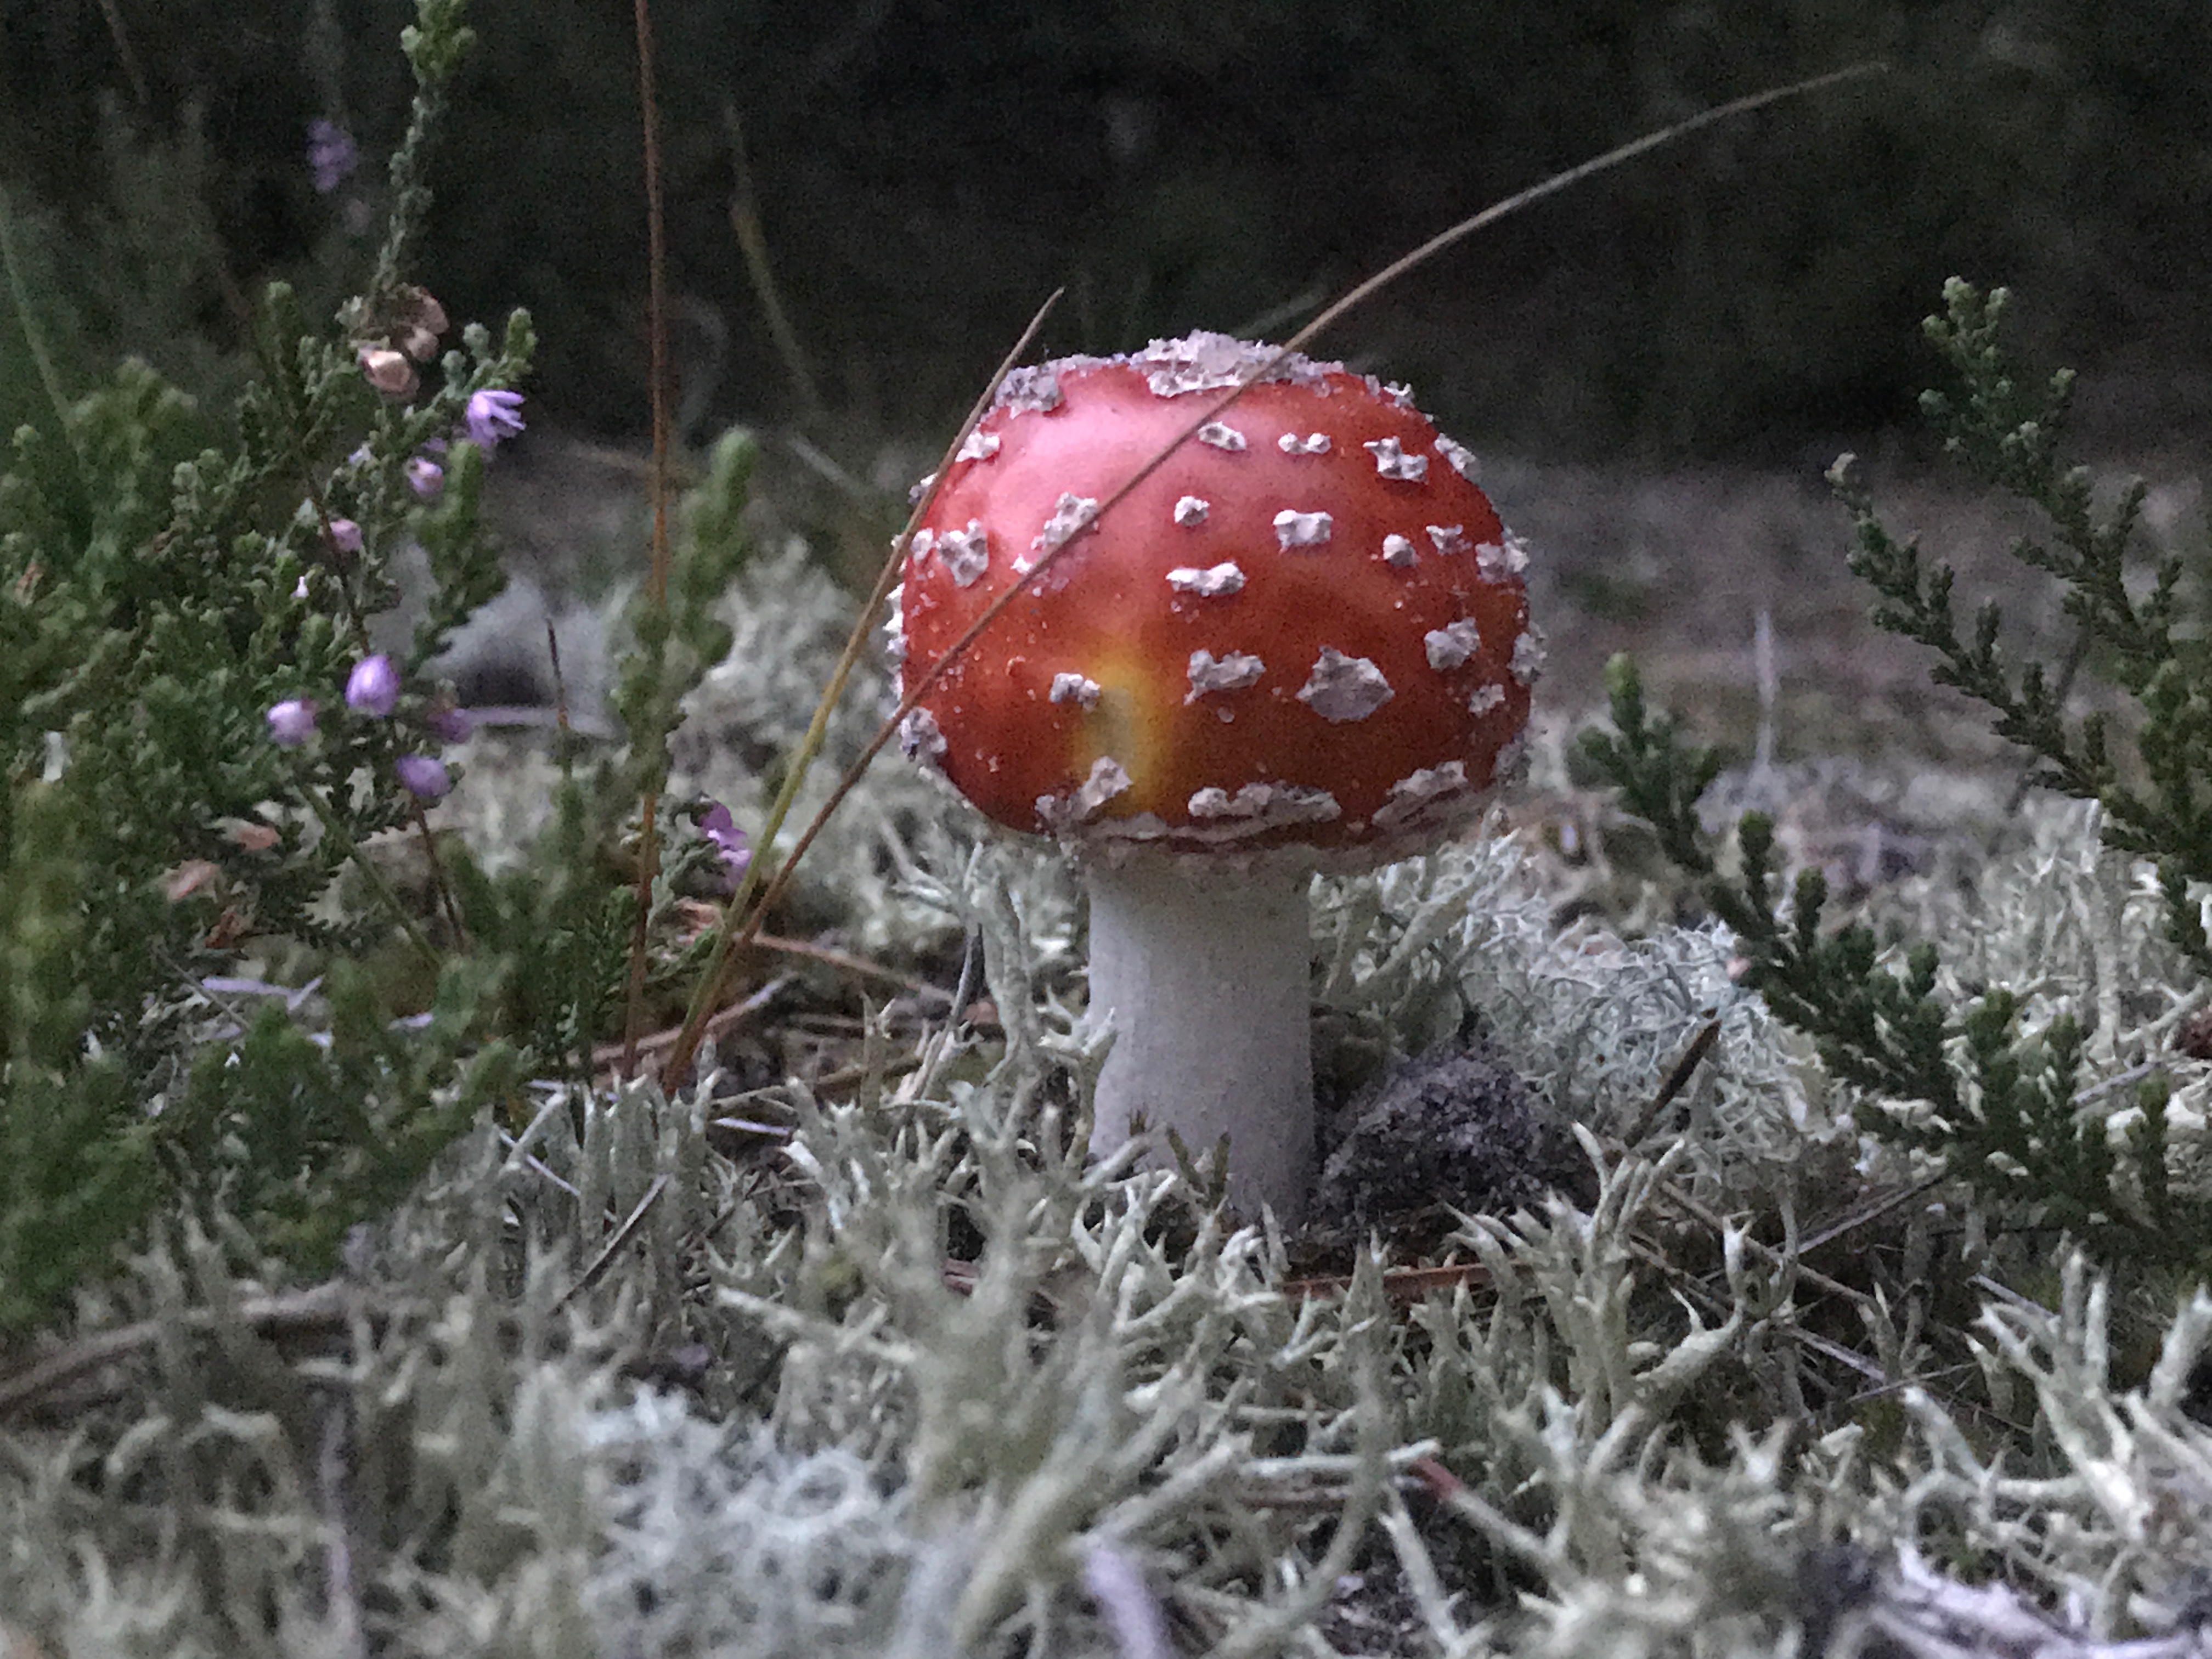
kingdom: Fungi
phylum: Basidiomycota
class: Agaricomycetes
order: Agaricales
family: Amanitaceae
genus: Amanita
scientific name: Amanita muscaria
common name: rød fluesvamp
